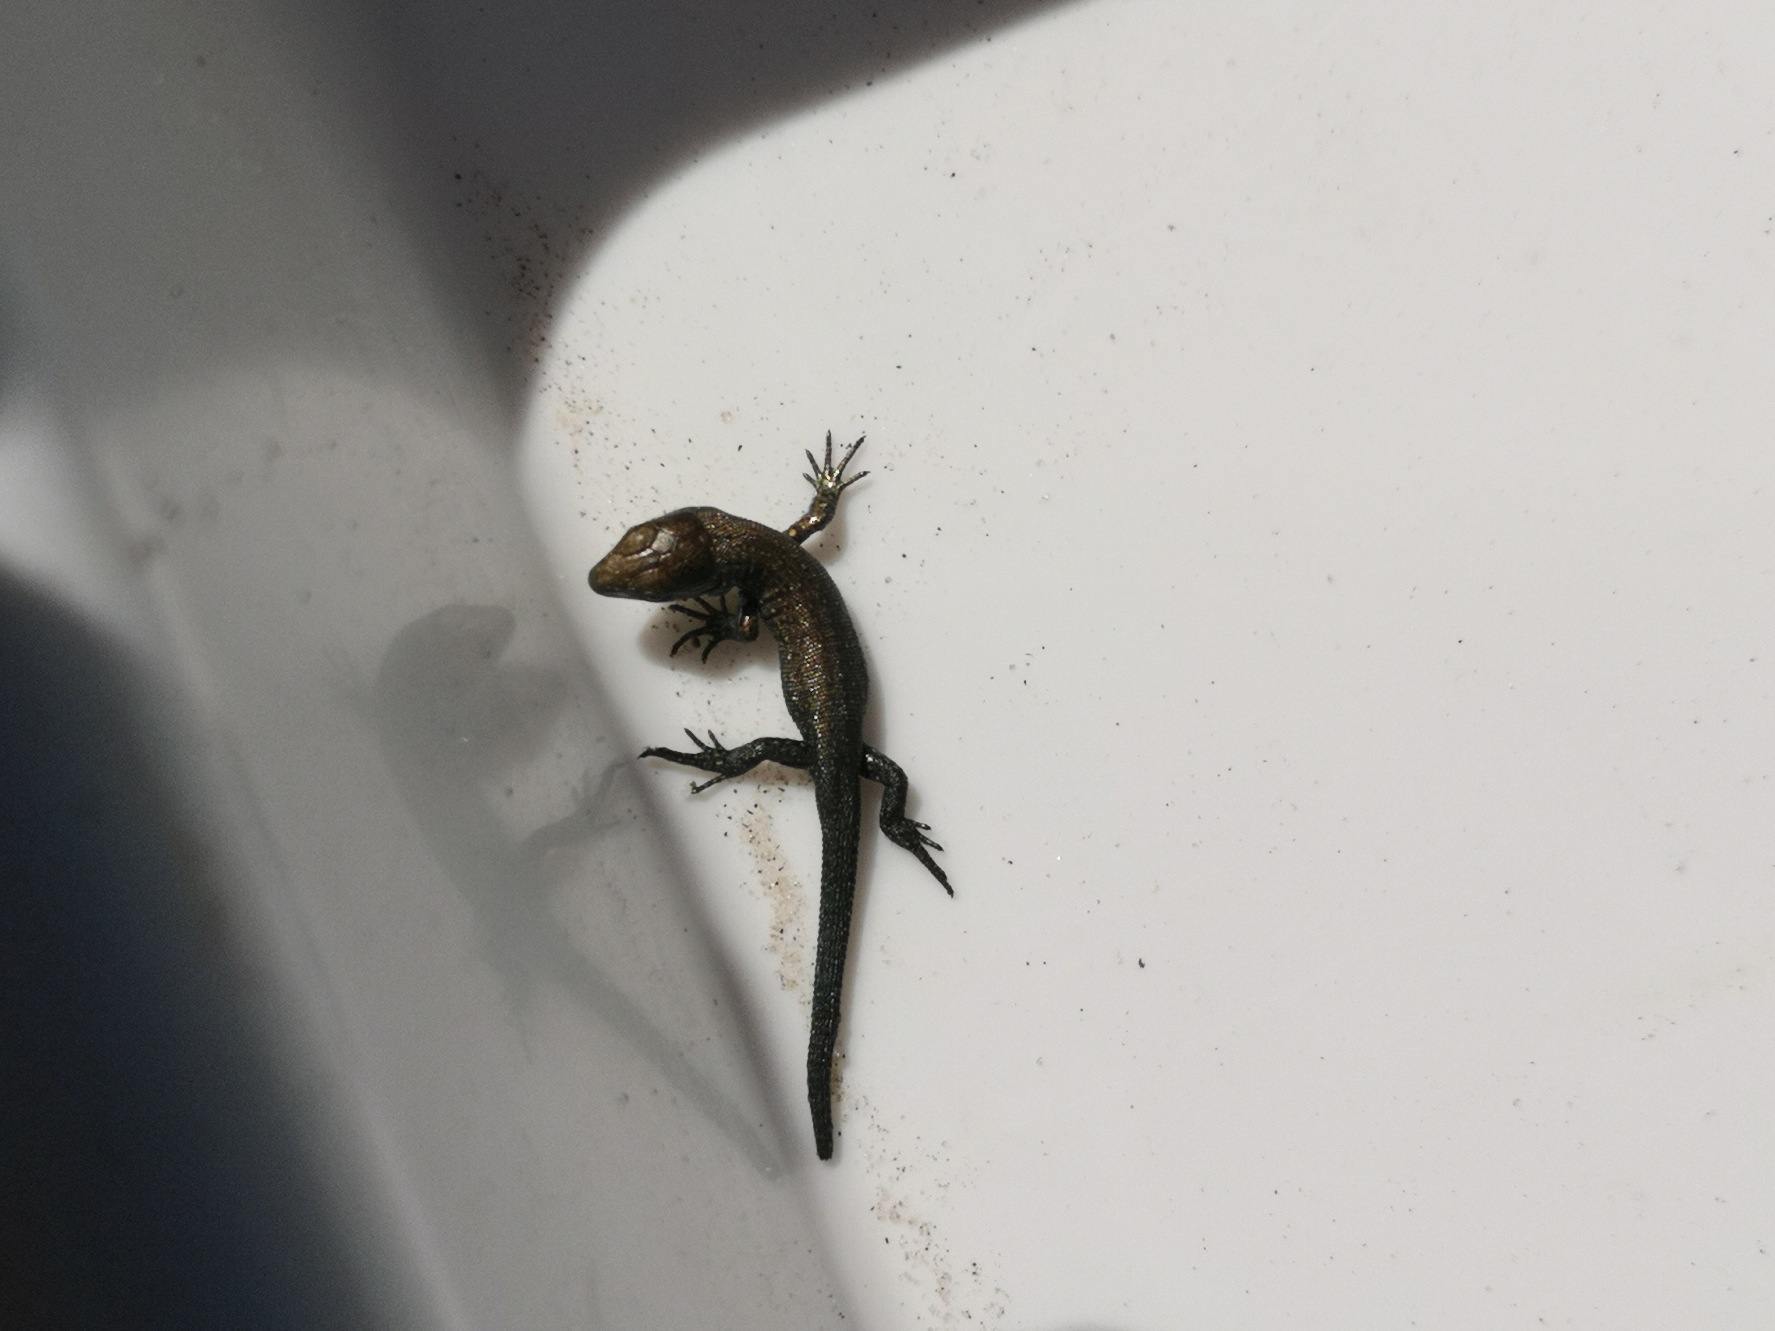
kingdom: Animalia
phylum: Chordata
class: Squamata
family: Lacertidae
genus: Zootoca
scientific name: Zootoca vivipara
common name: Skovfirben
